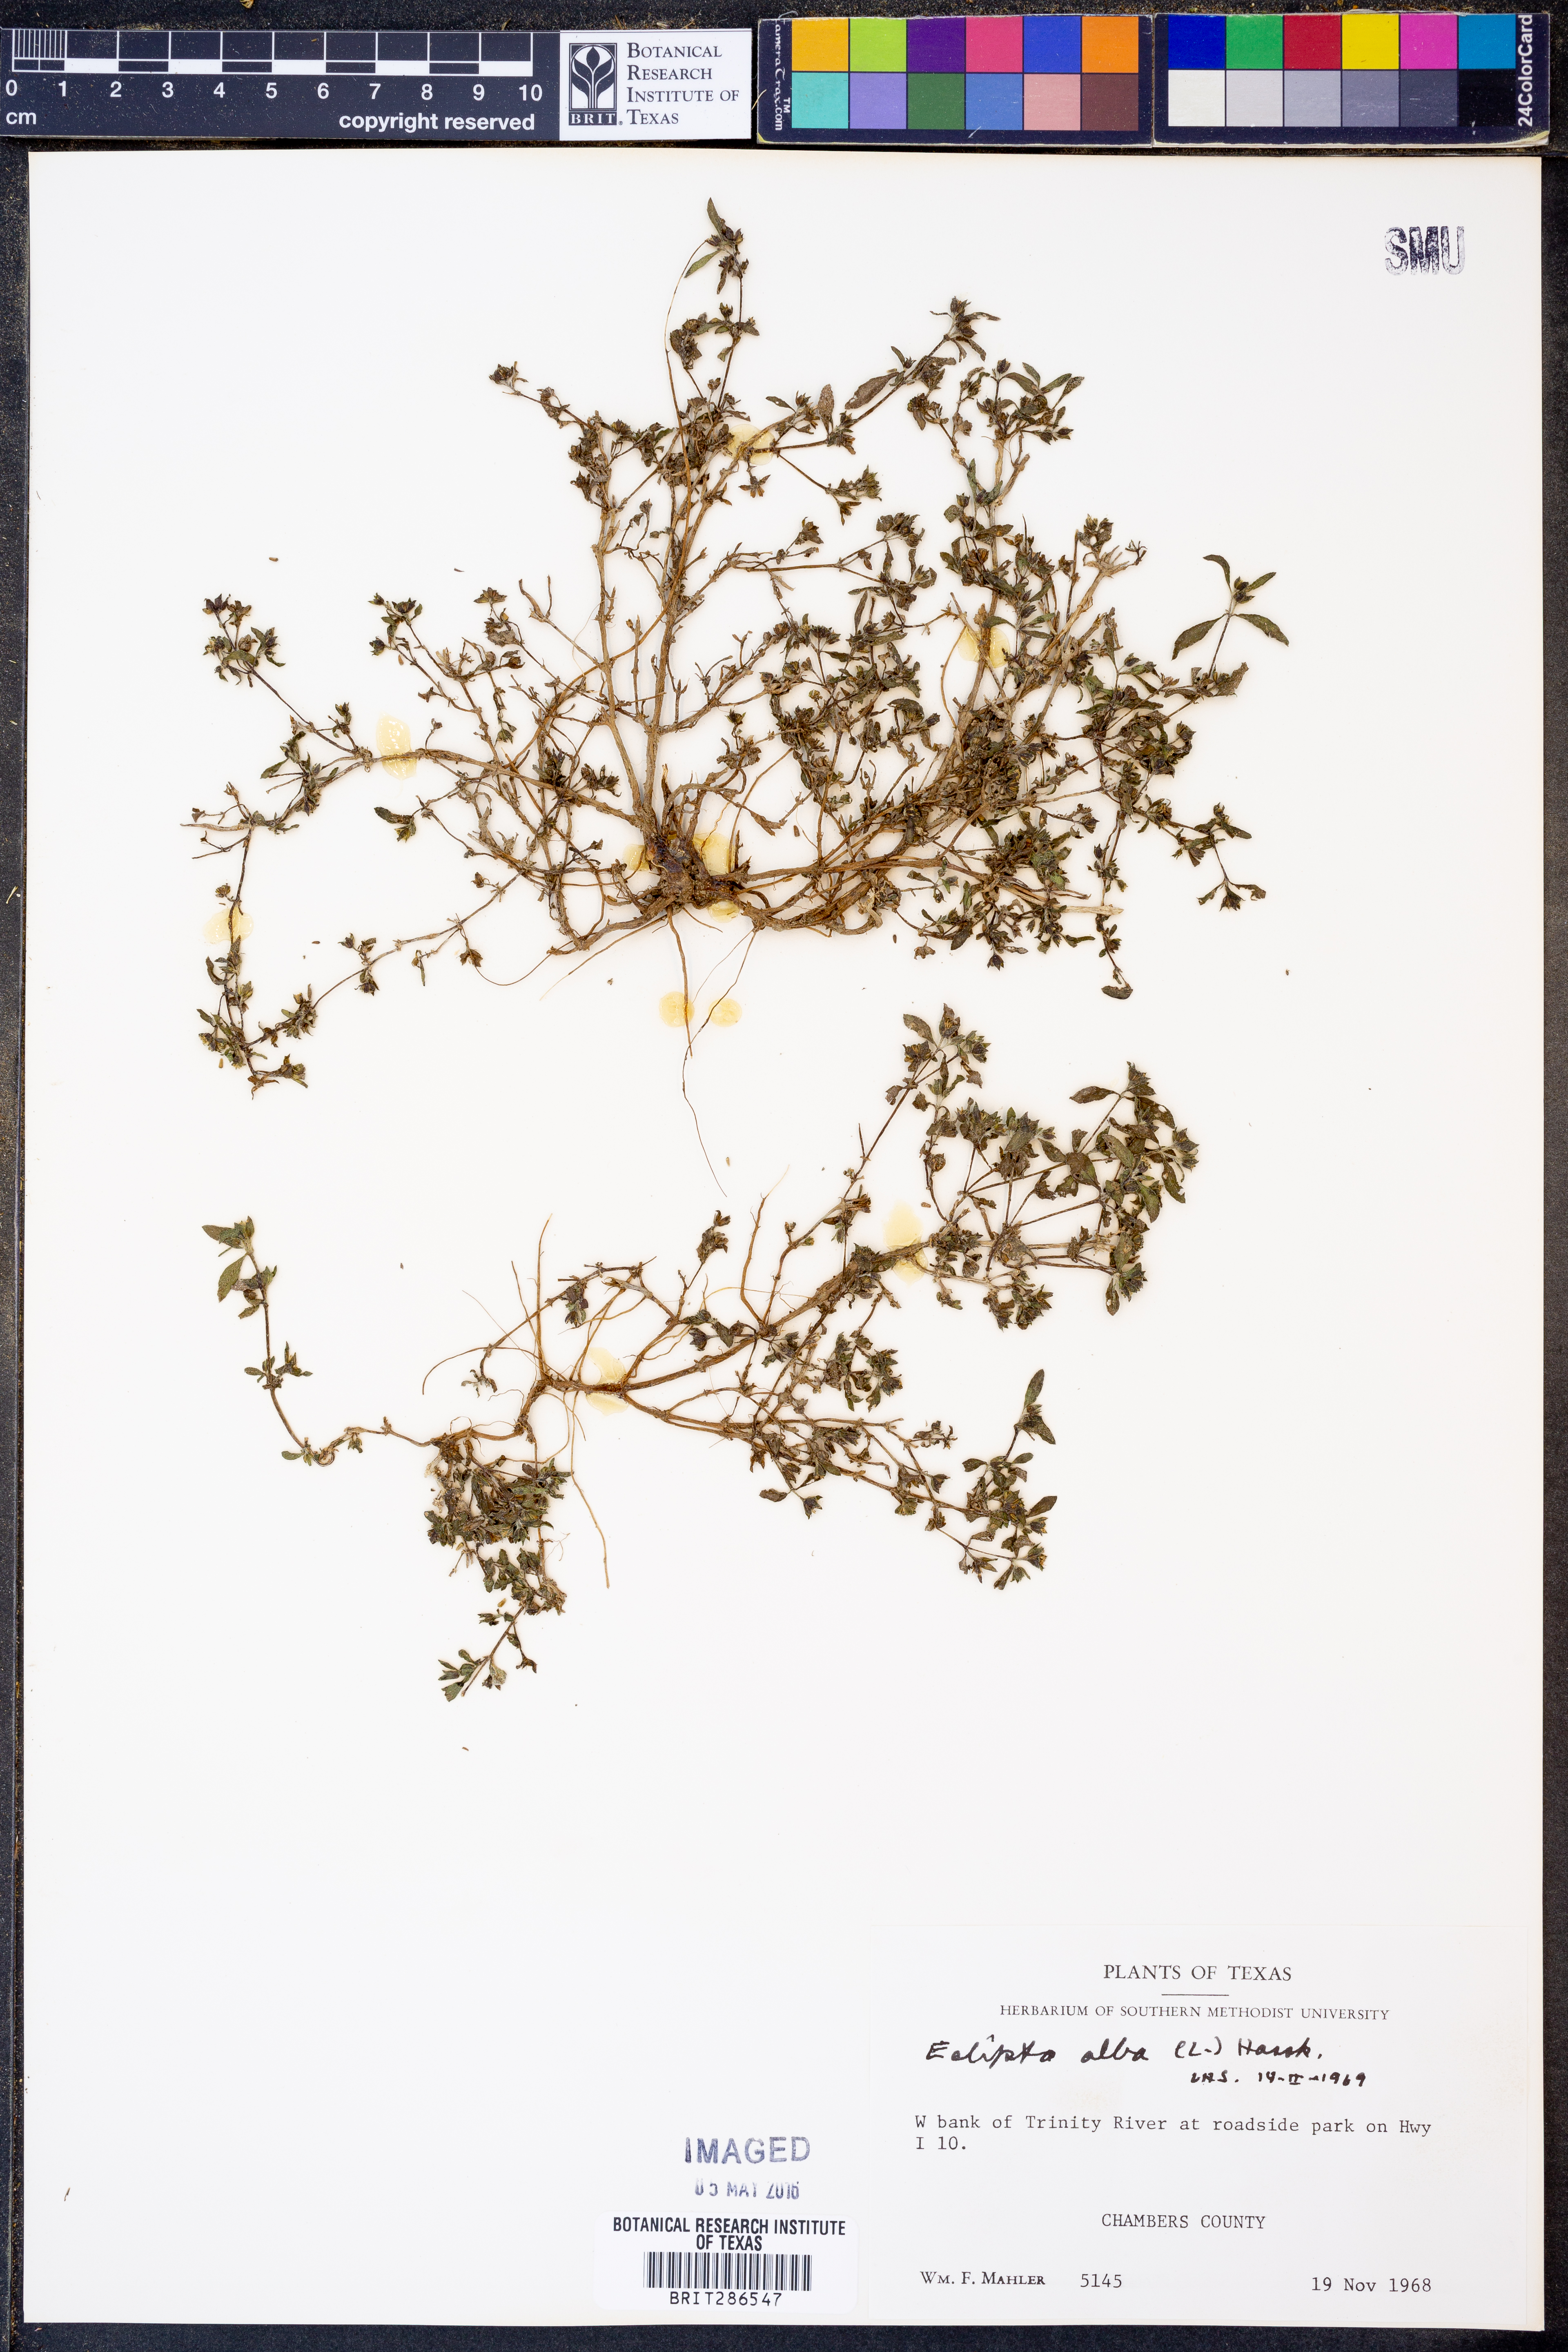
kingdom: Plantae
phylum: Tracheophyta
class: Magnoliopsida
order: Asterales
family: Asteraceae
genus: Eclipta
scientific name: Eclipta alba
